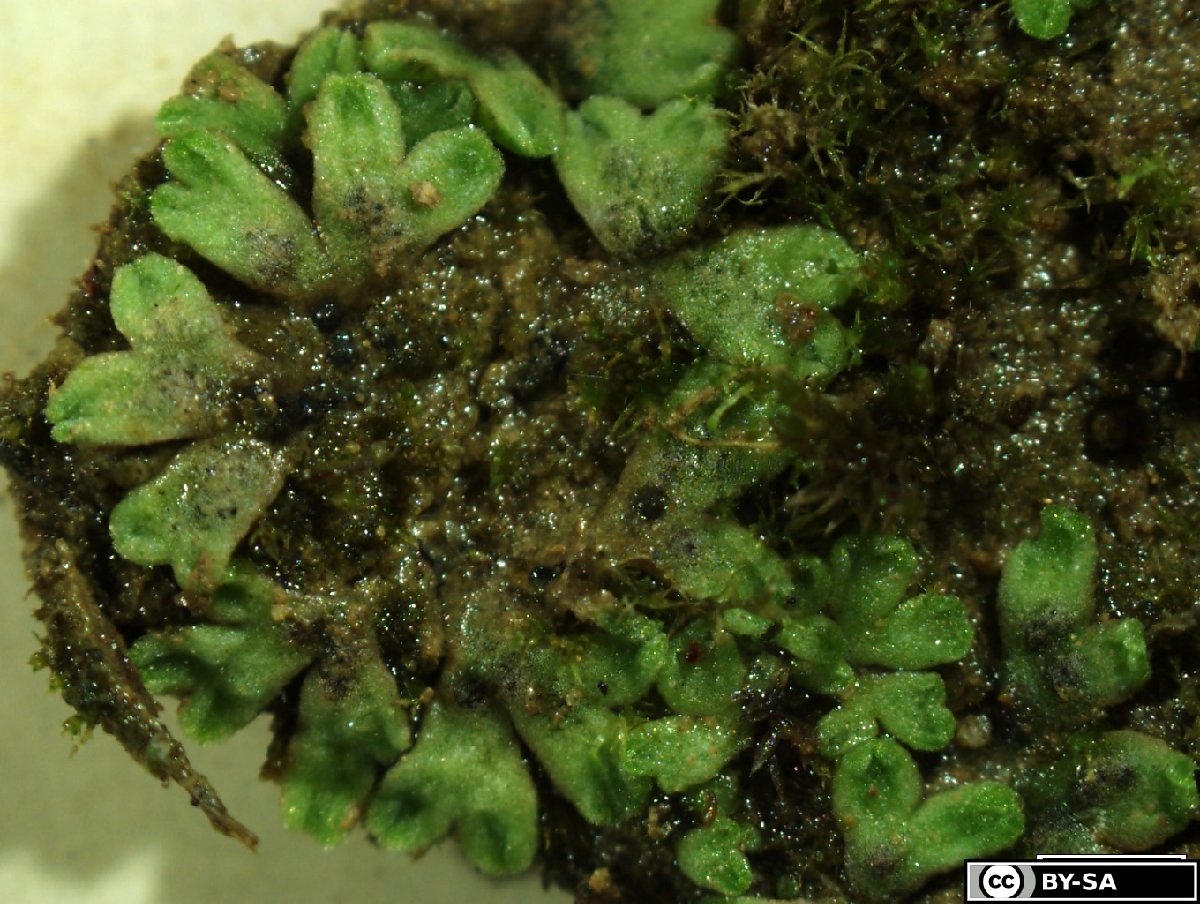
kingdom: Plantae
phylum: Marchantiophyta
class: Marchantiopsida
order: Marchantiales
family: Ricciaceae
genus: Riccia
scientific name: Riccia bifurca
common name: Lizard crystalwort
